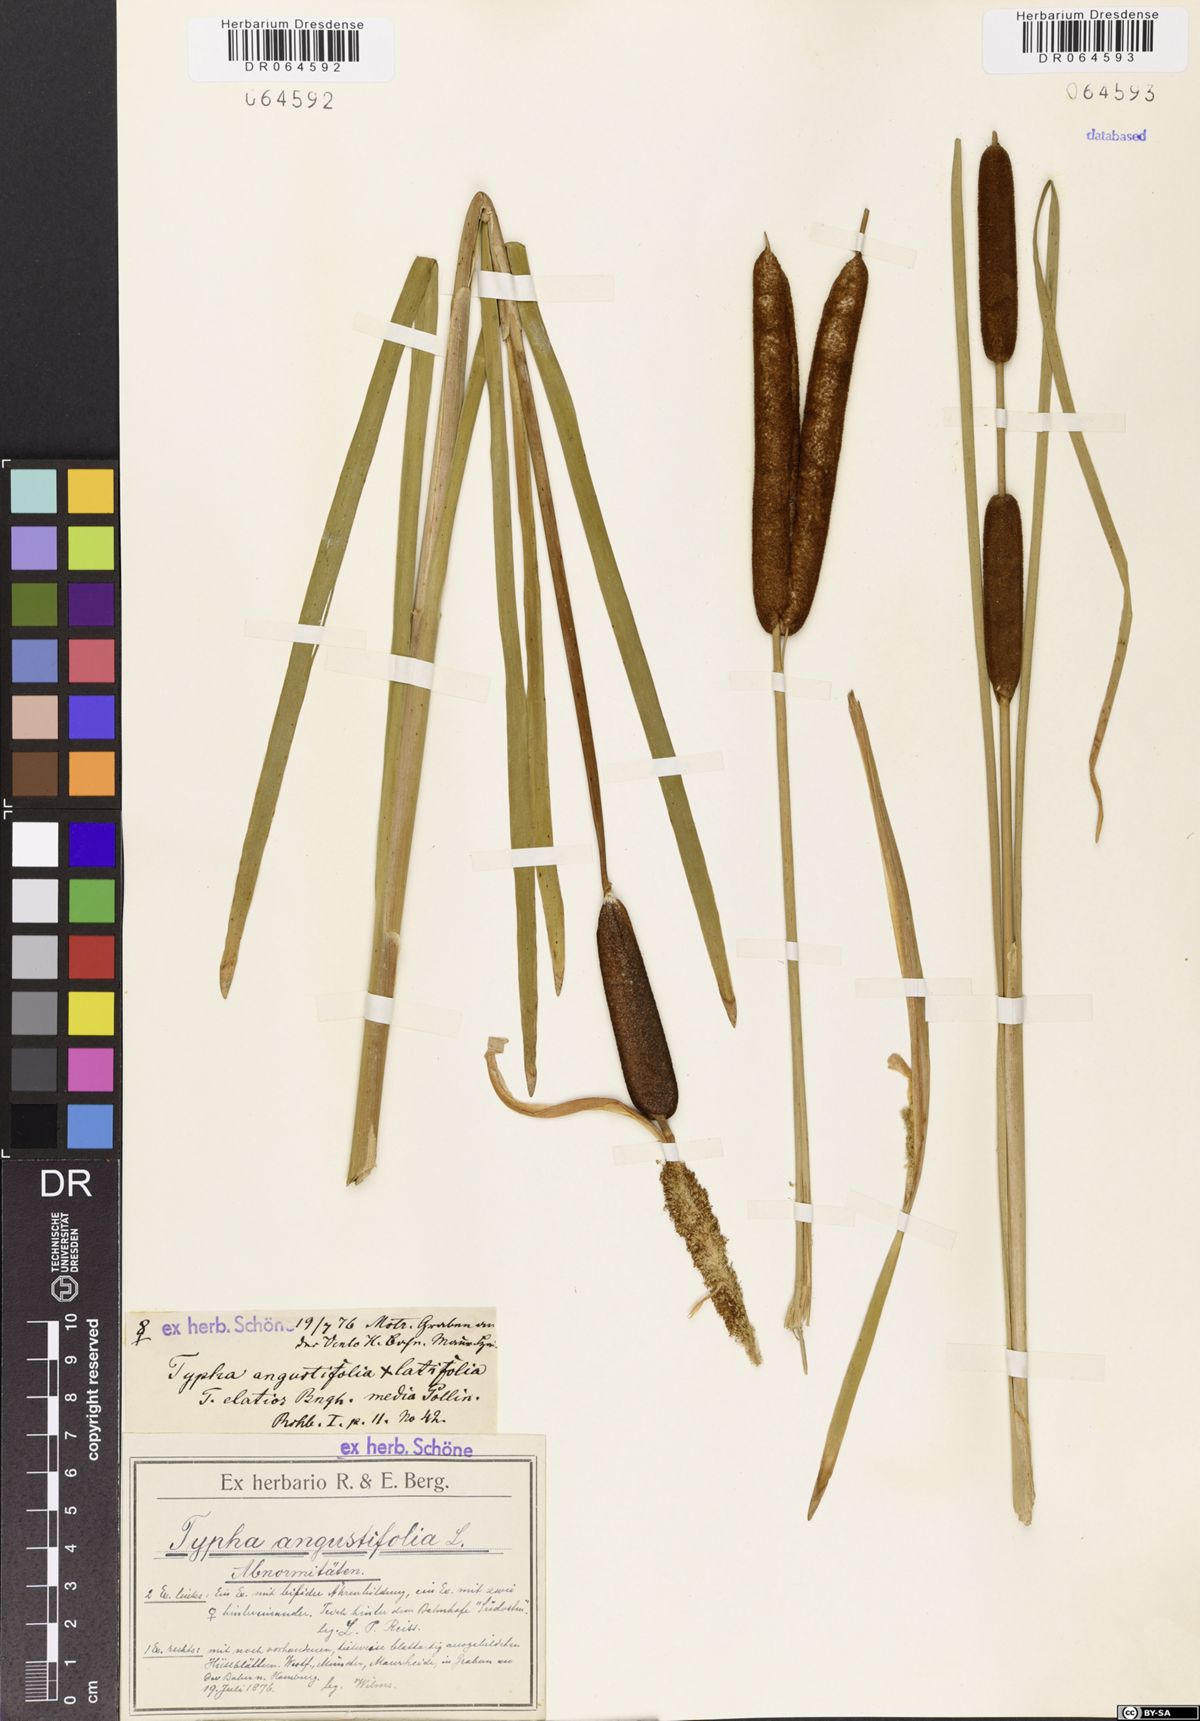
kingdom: Plantae
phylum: Tracheophyta
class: Liliopsida
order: Poales
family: Typhaceae
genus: Typha
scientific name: Typha angustifolia
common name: Lesser bulrush
